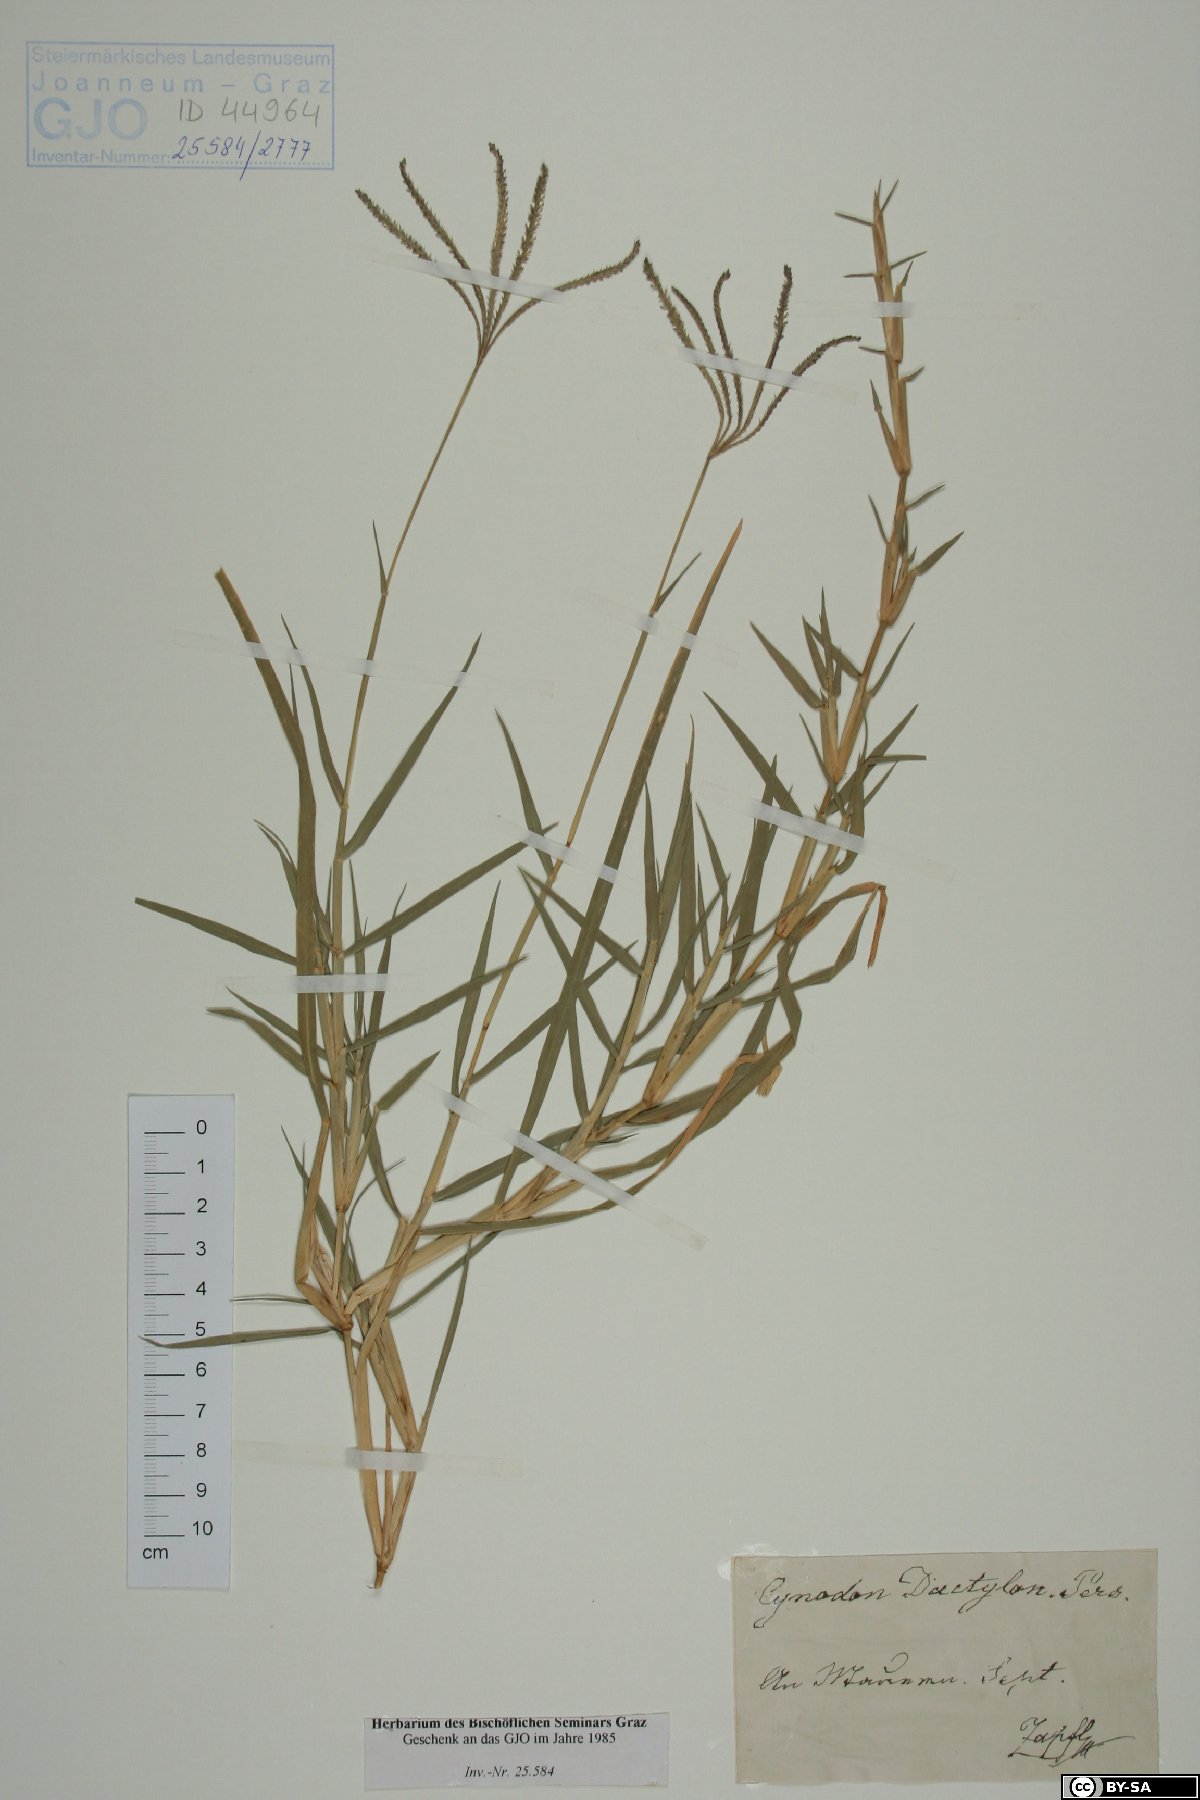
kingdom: Plantae
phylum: Tracheophyta
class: Liliopsida
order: Poales
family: Poaceae
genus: Cynodon
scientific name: Cynodon dactylon
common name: Bermuda grass
